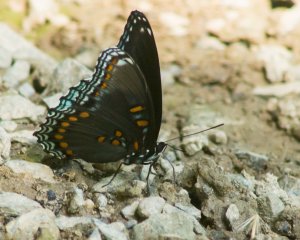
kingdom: Animalia
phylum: Arthropoda
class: Insecta
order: Lepidoptera
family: Nymphalidae
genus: Limenitis
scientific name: Limenitis astyanax
